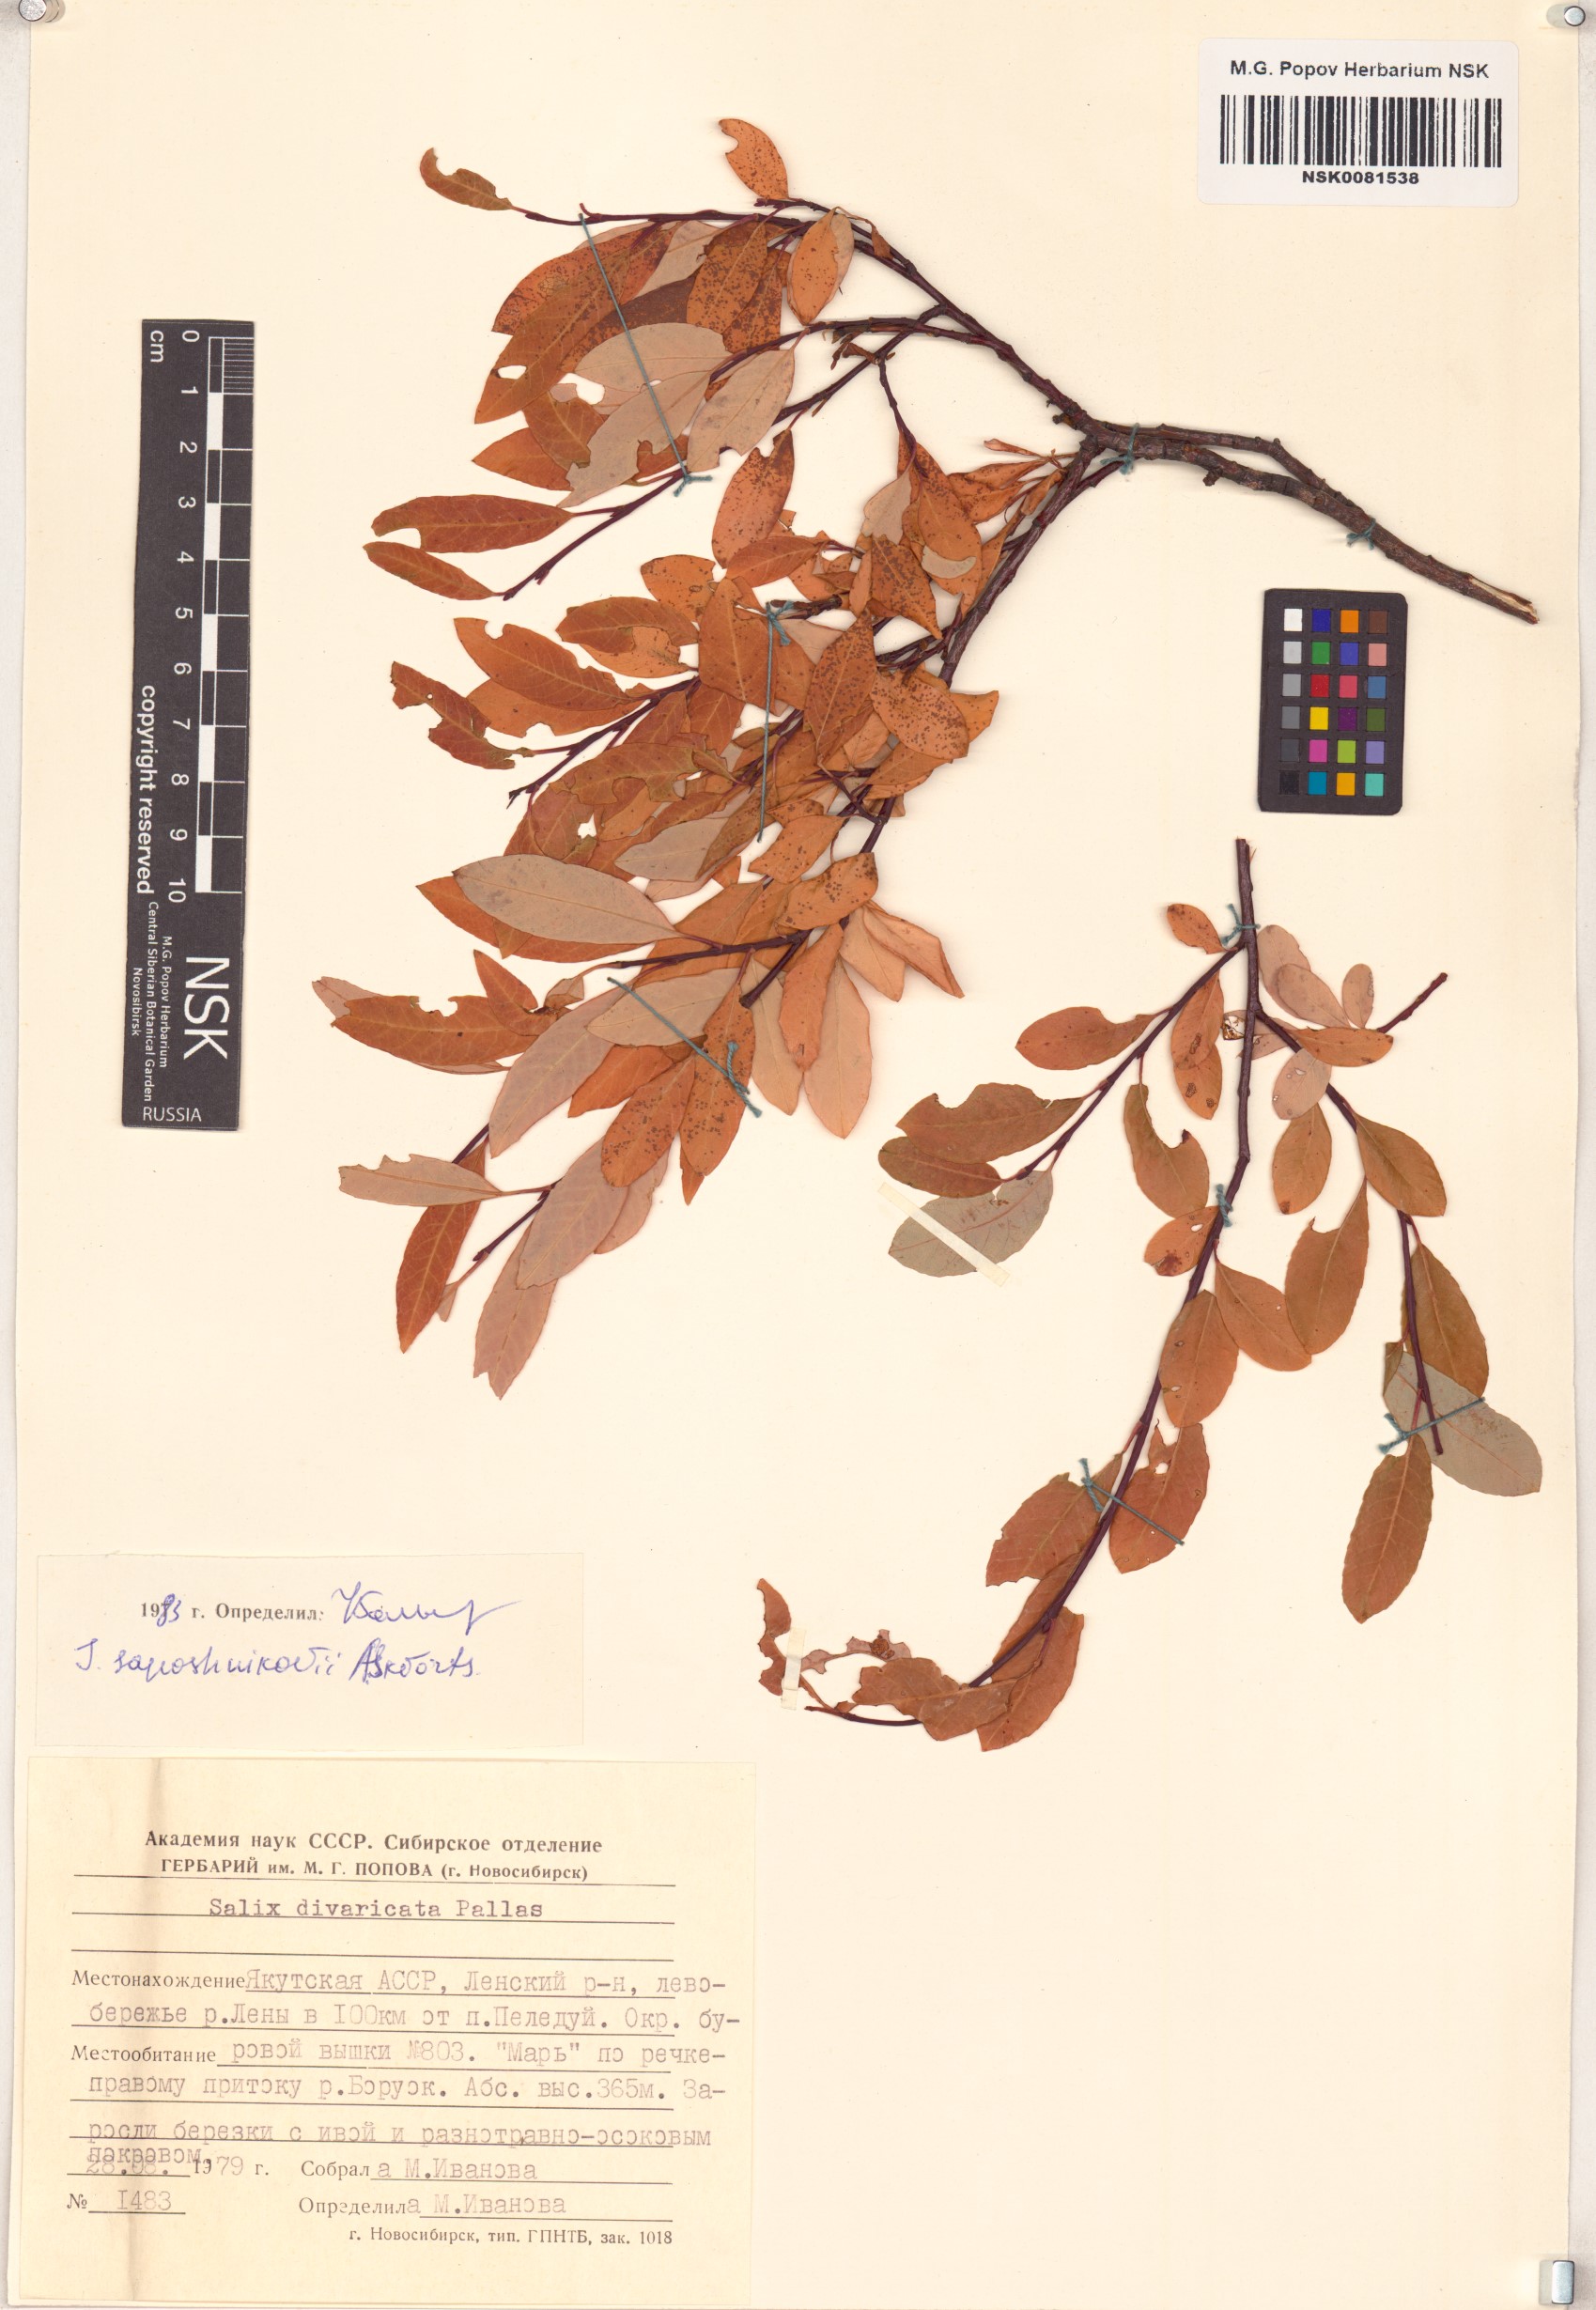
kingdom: Plantae
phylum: Tracheophyta
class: Magnoliopsida
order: Malpighiales
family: Salicaceae
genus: Salix
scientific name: Salix saposhnikovii
